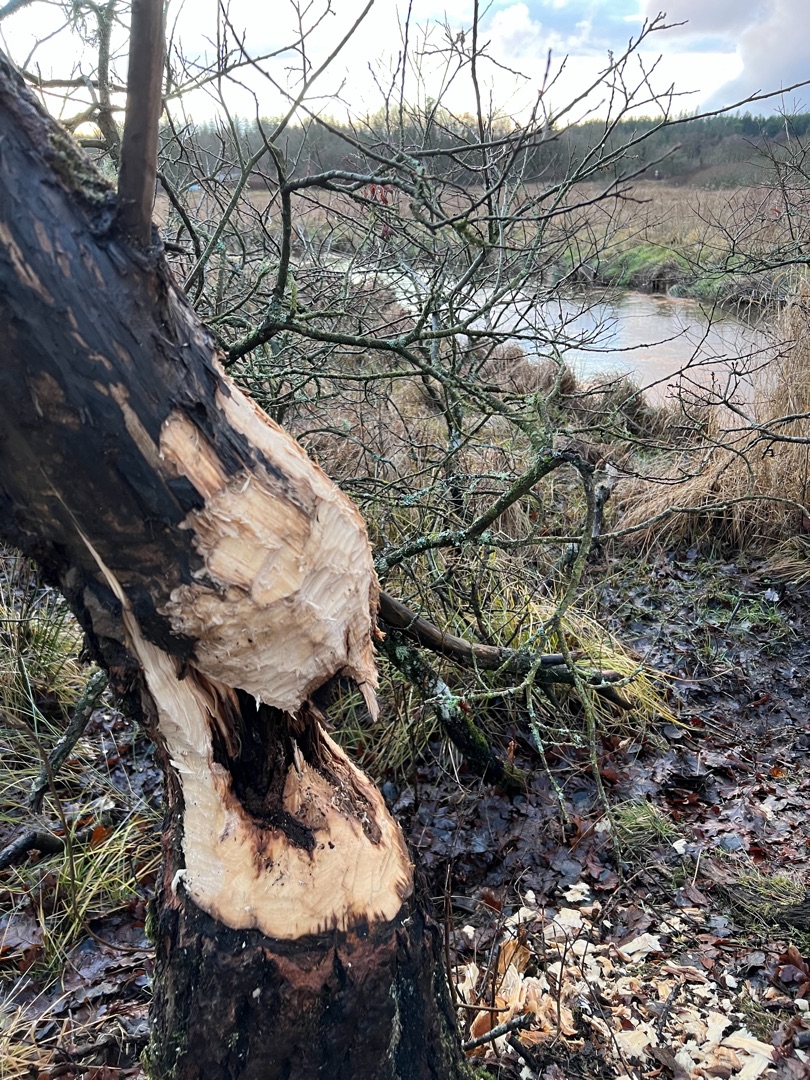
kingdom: Animalia
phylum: Chordata
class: Mammalia
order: Rodentia
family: Castoridae
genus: Castor
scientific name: Castor fiber
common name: Bæver
